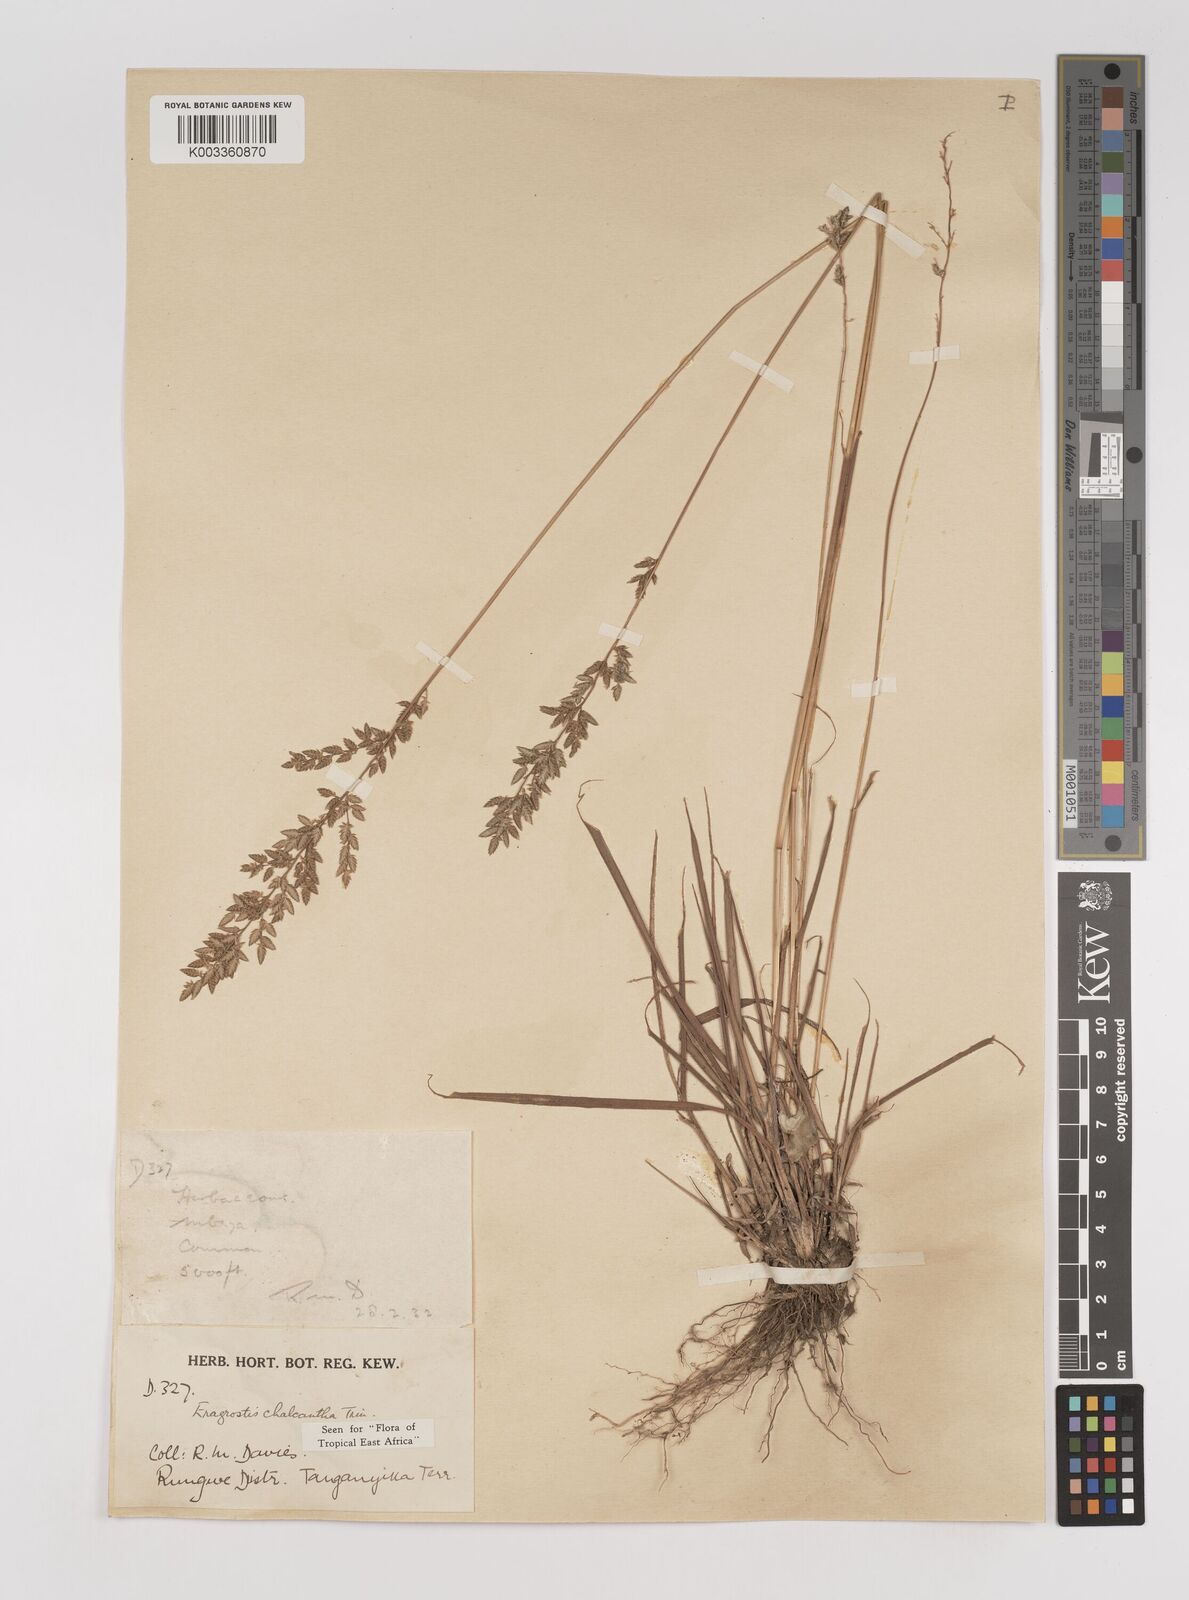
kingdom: Plantae
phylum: Tracheophyta
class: Liliopsida
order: Poales
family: Poaceae
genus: Eragrostis
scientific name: Eragrostis racemosa
